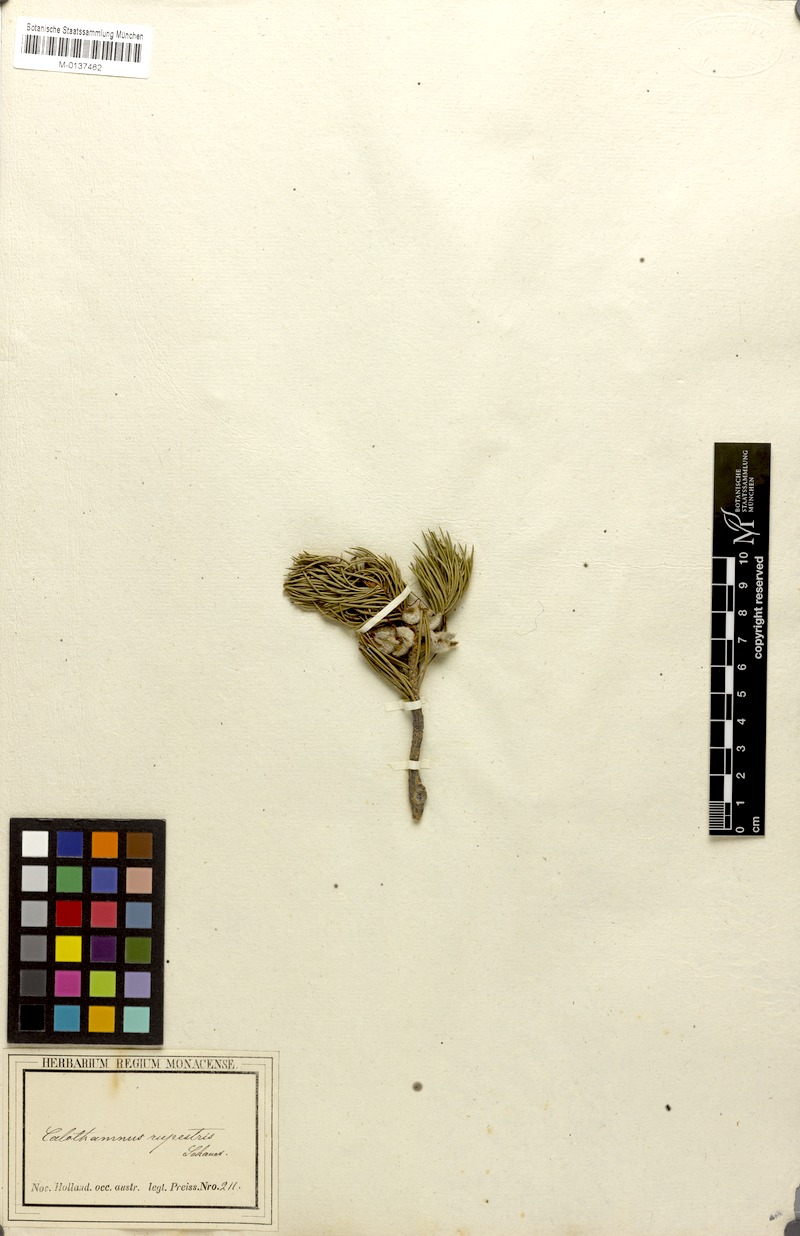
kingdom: Plantae
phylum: Tracheophyta
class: Magnoliopsida
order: Myrtales
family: Myrtaceae
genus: Melaleuca
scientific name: Melaleuca rupestris
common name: Cliff net-bush
